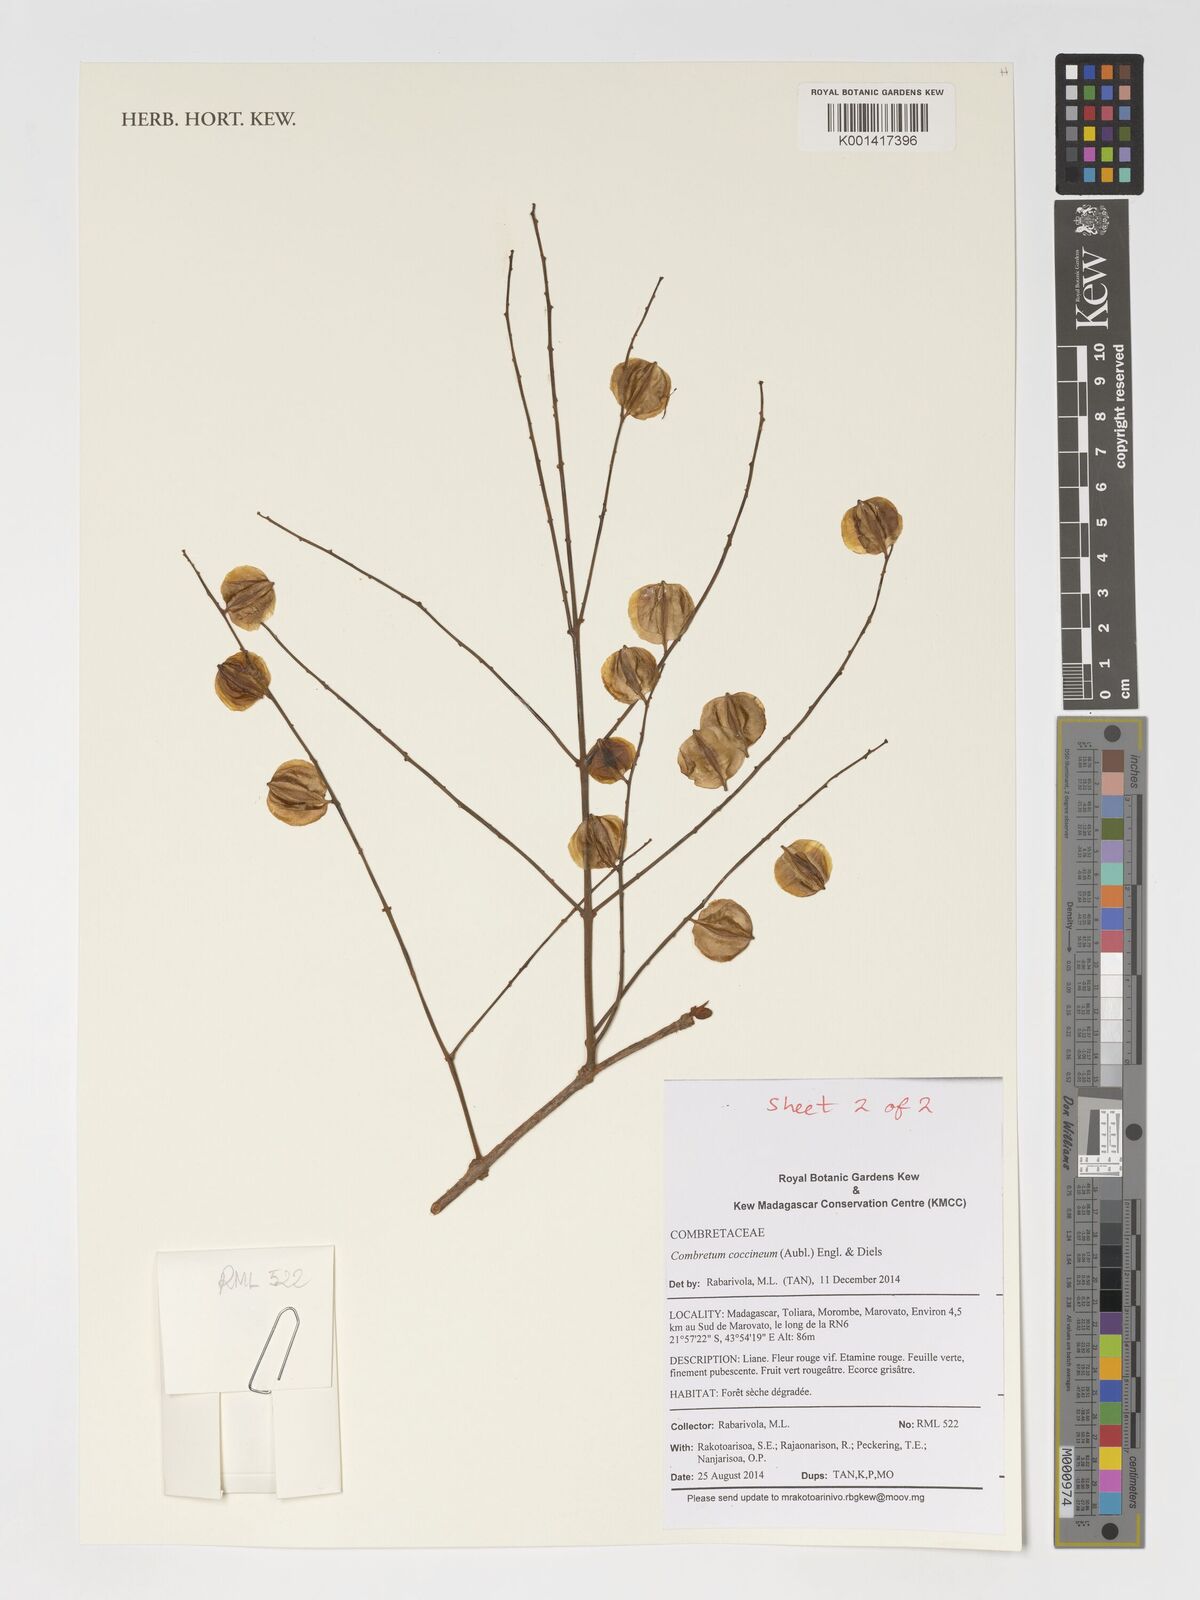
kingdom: Plantae
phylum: Tracheophyta
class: Magnoliopsida
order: Myrtales
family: Combretaceae
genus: Combretum
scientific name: Combretum cacoucia
